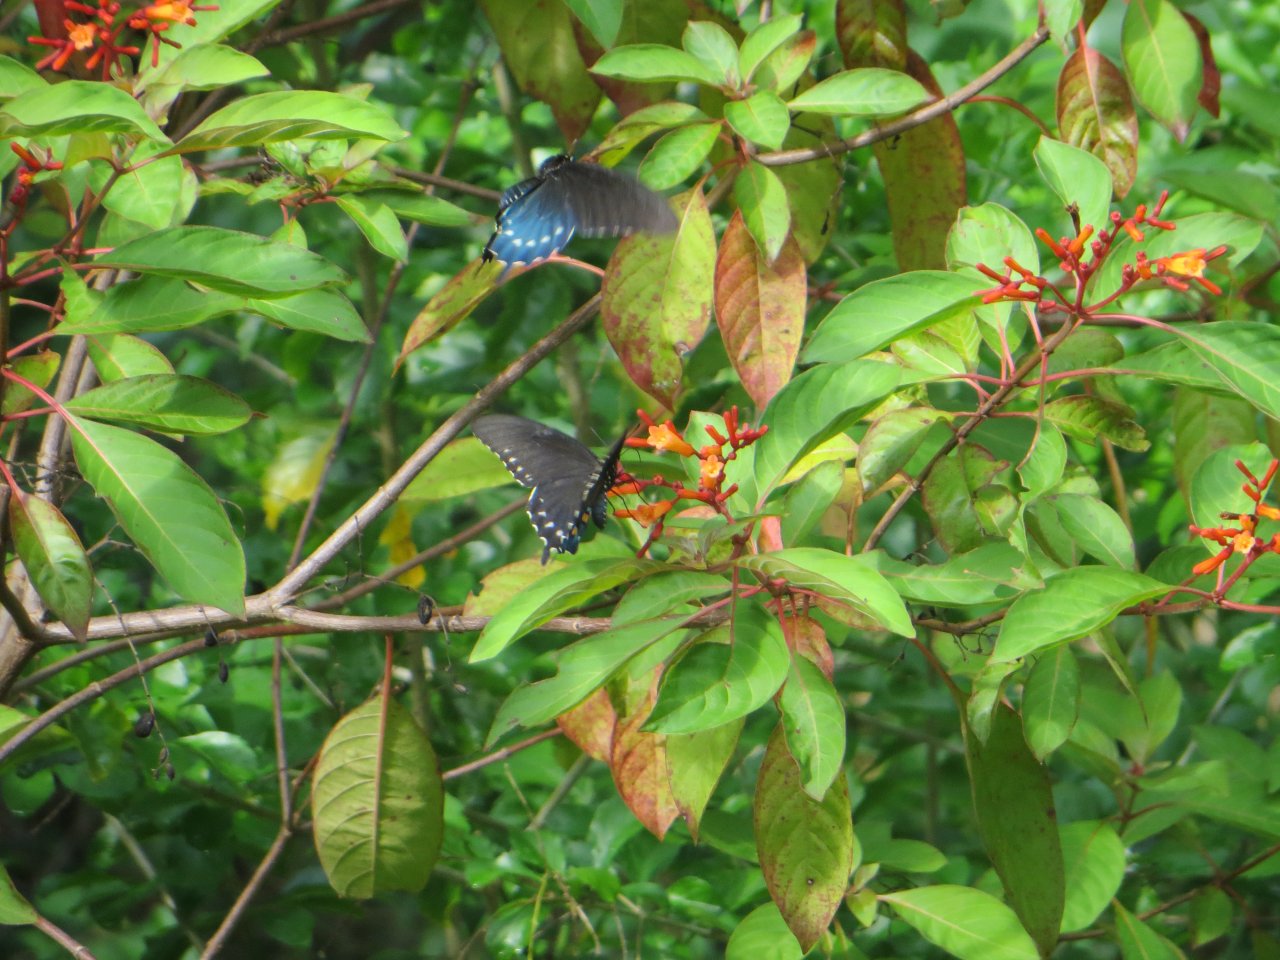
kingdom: Animalia
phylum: Arthropoda
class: Insecta
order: Lepidoptera
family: Papilionidae
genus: Battus
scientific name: Battus philenor
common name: Pipevine Swallowtail
